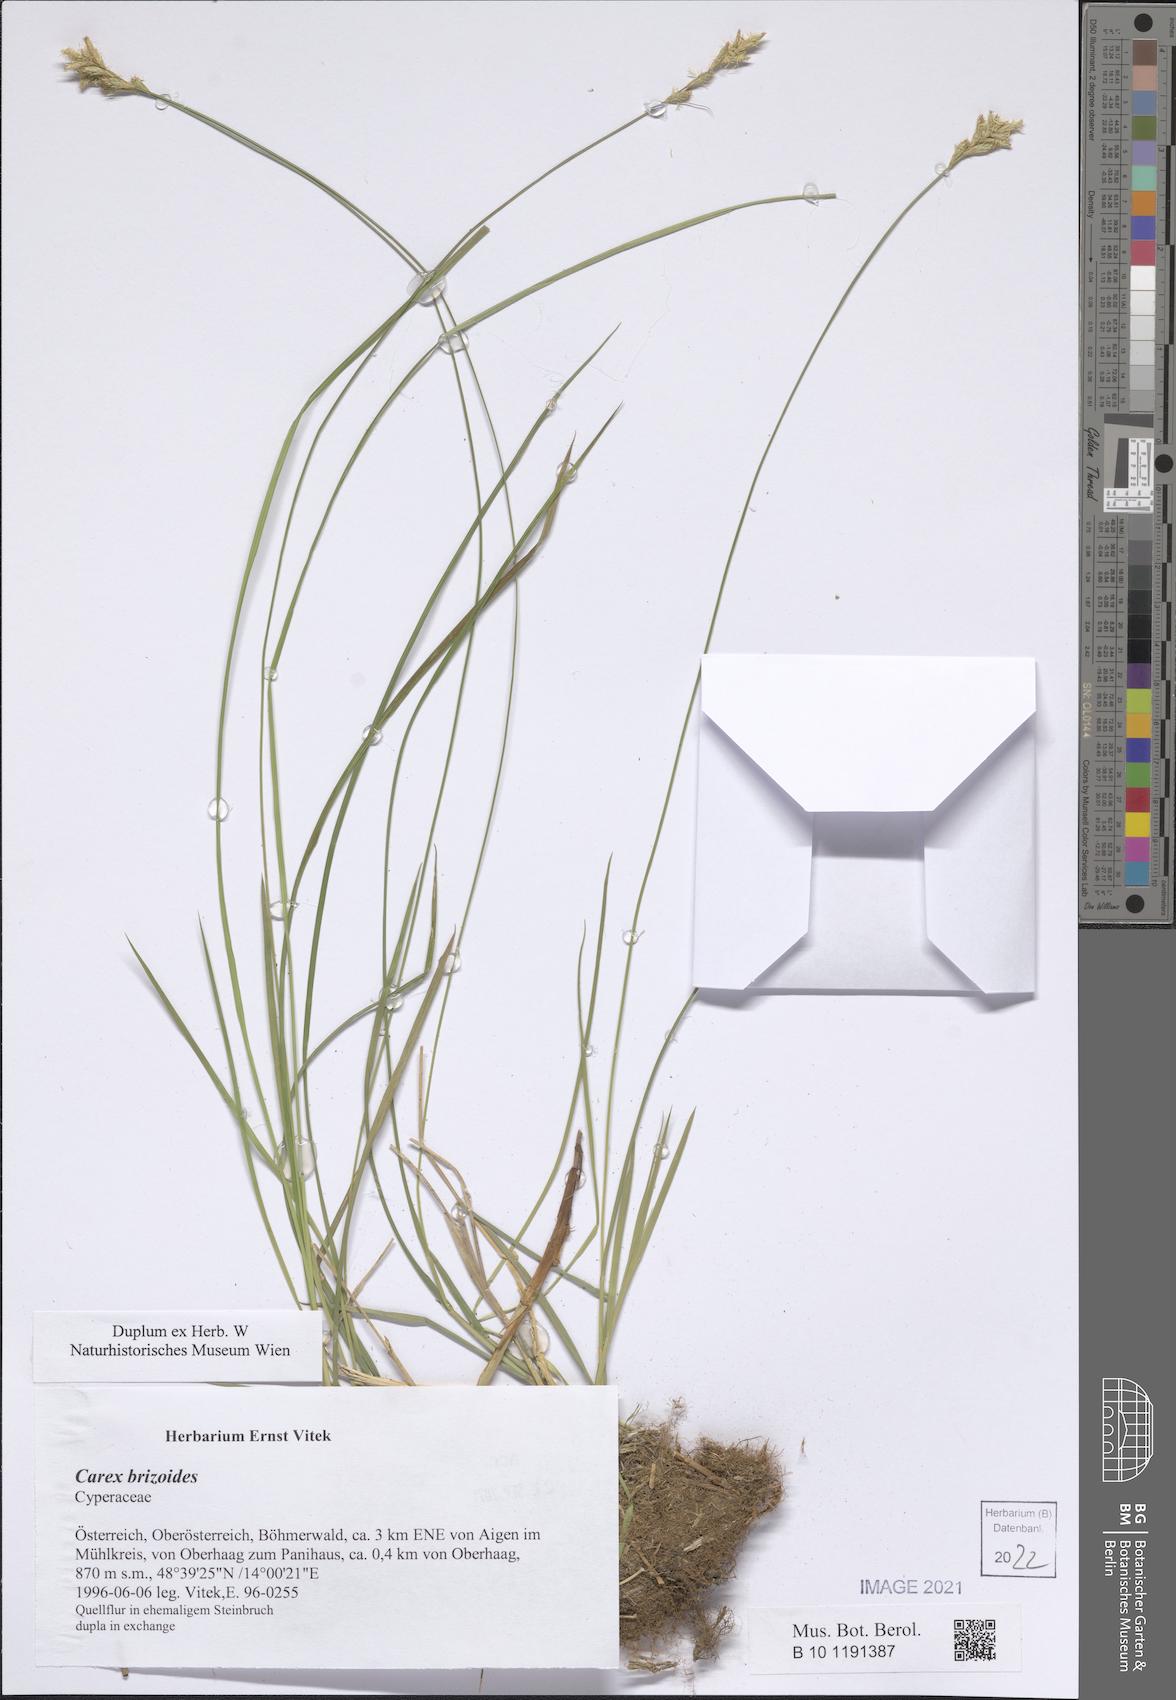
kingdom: Plantae
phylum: Tracheophyta
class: Liliopsida
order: Poales
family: Cyperaceae
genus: Carex
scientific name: Carex brizoides
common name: Quaking-grass sedge
